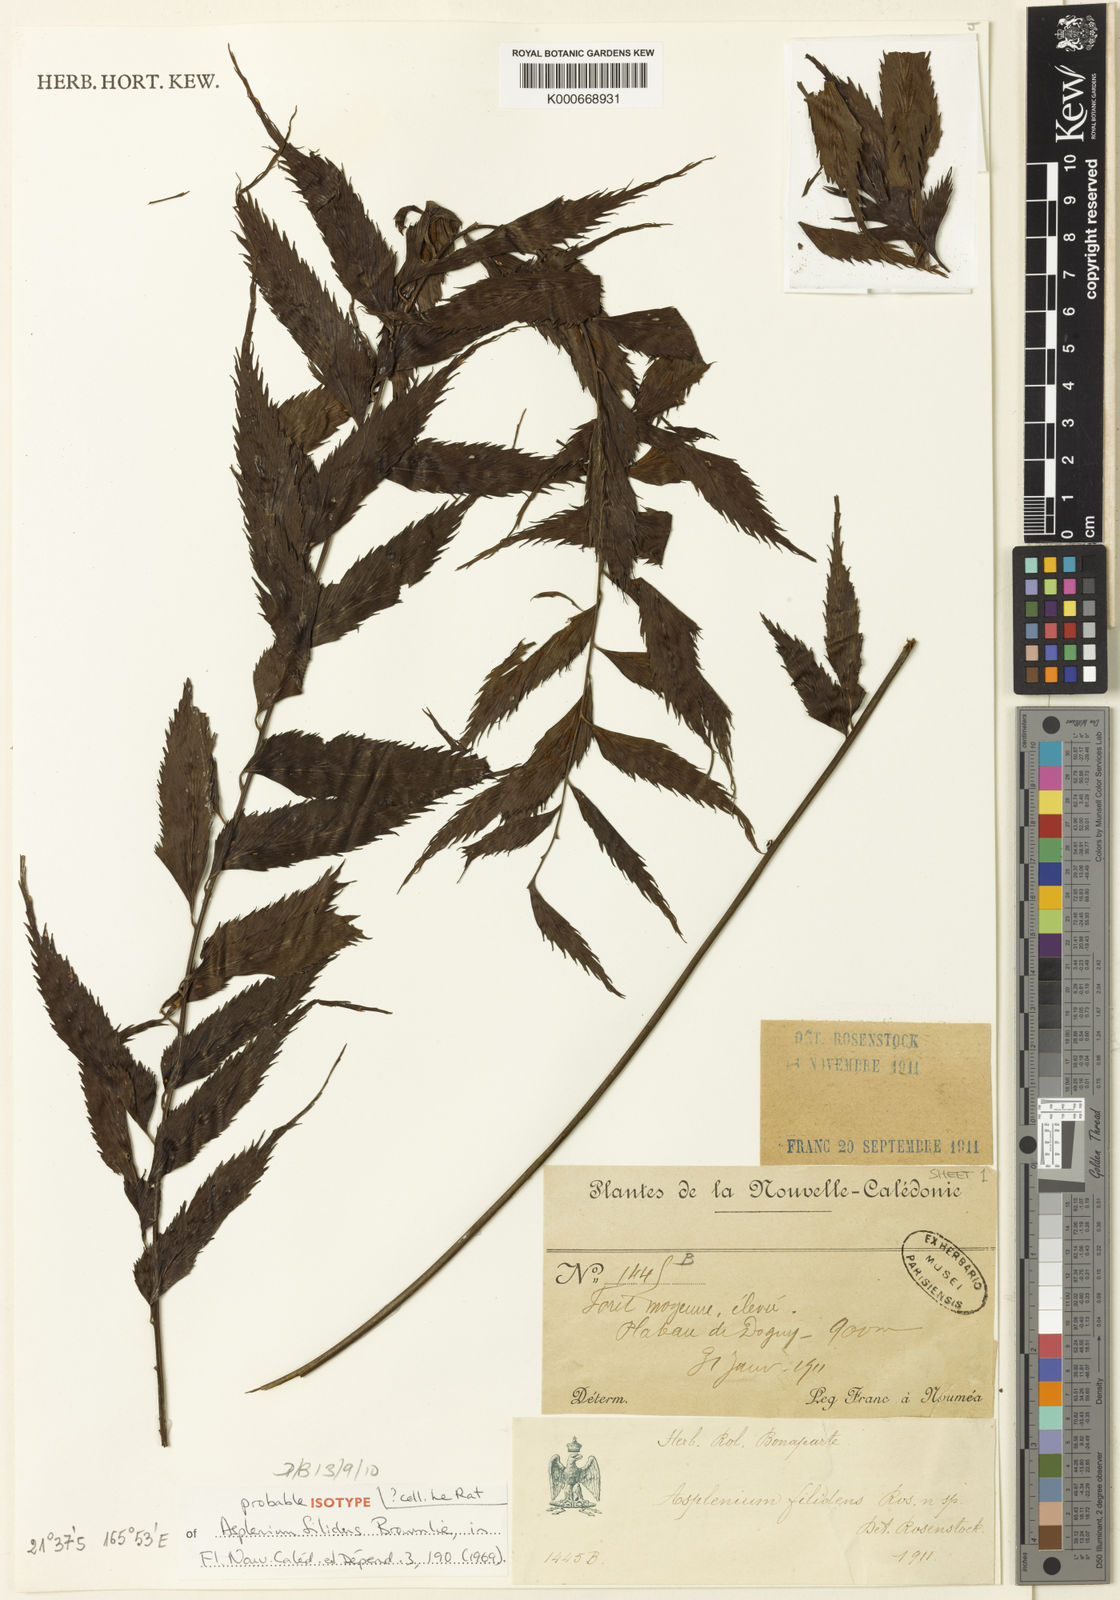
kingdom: Plantae
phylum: Tracheophyta
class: Polypodiopsida
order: Polypodiales
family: Aspleniaceae
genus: Asplenium
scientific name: Asplenium filidens
